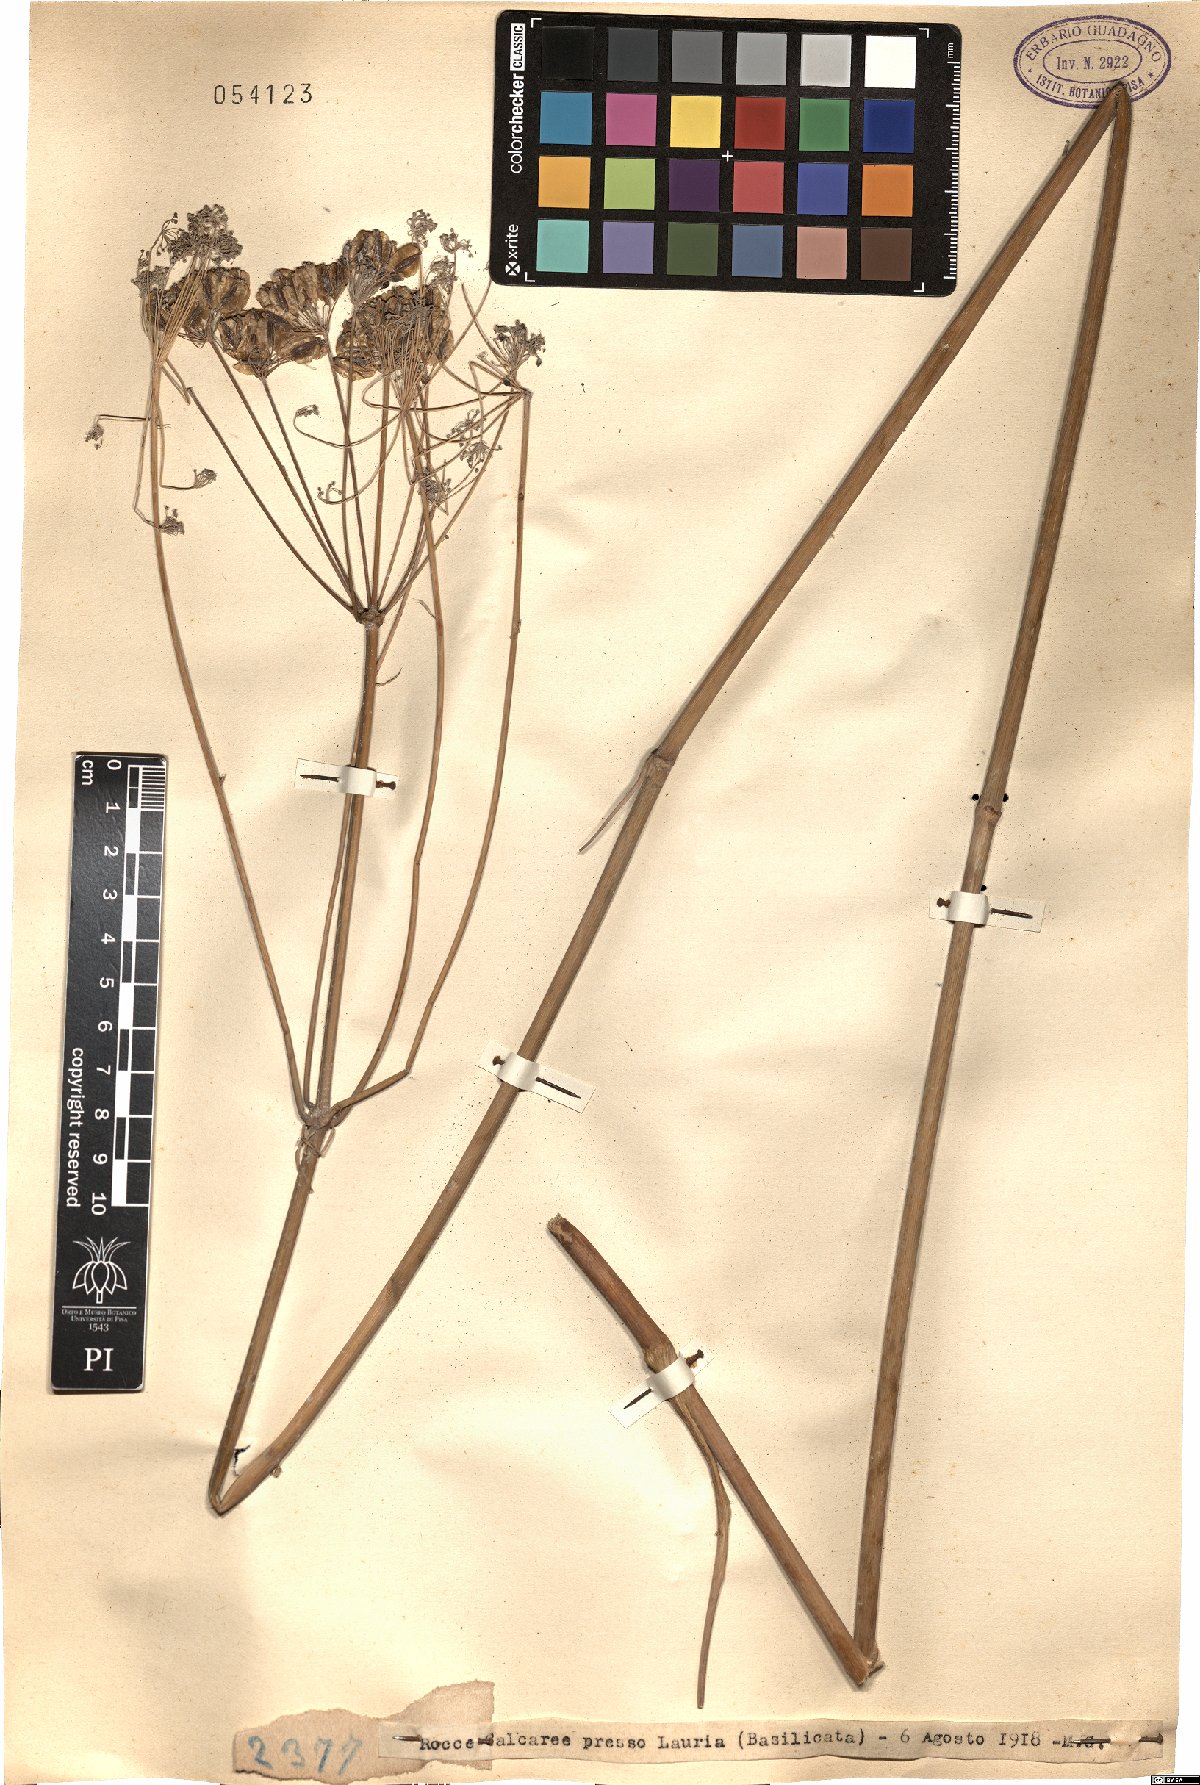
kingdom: Plantae
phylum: Tracheophyta
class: Magnoliopsida
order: Apiales
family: Apiaceae
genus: Ferula
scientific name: Ferula
